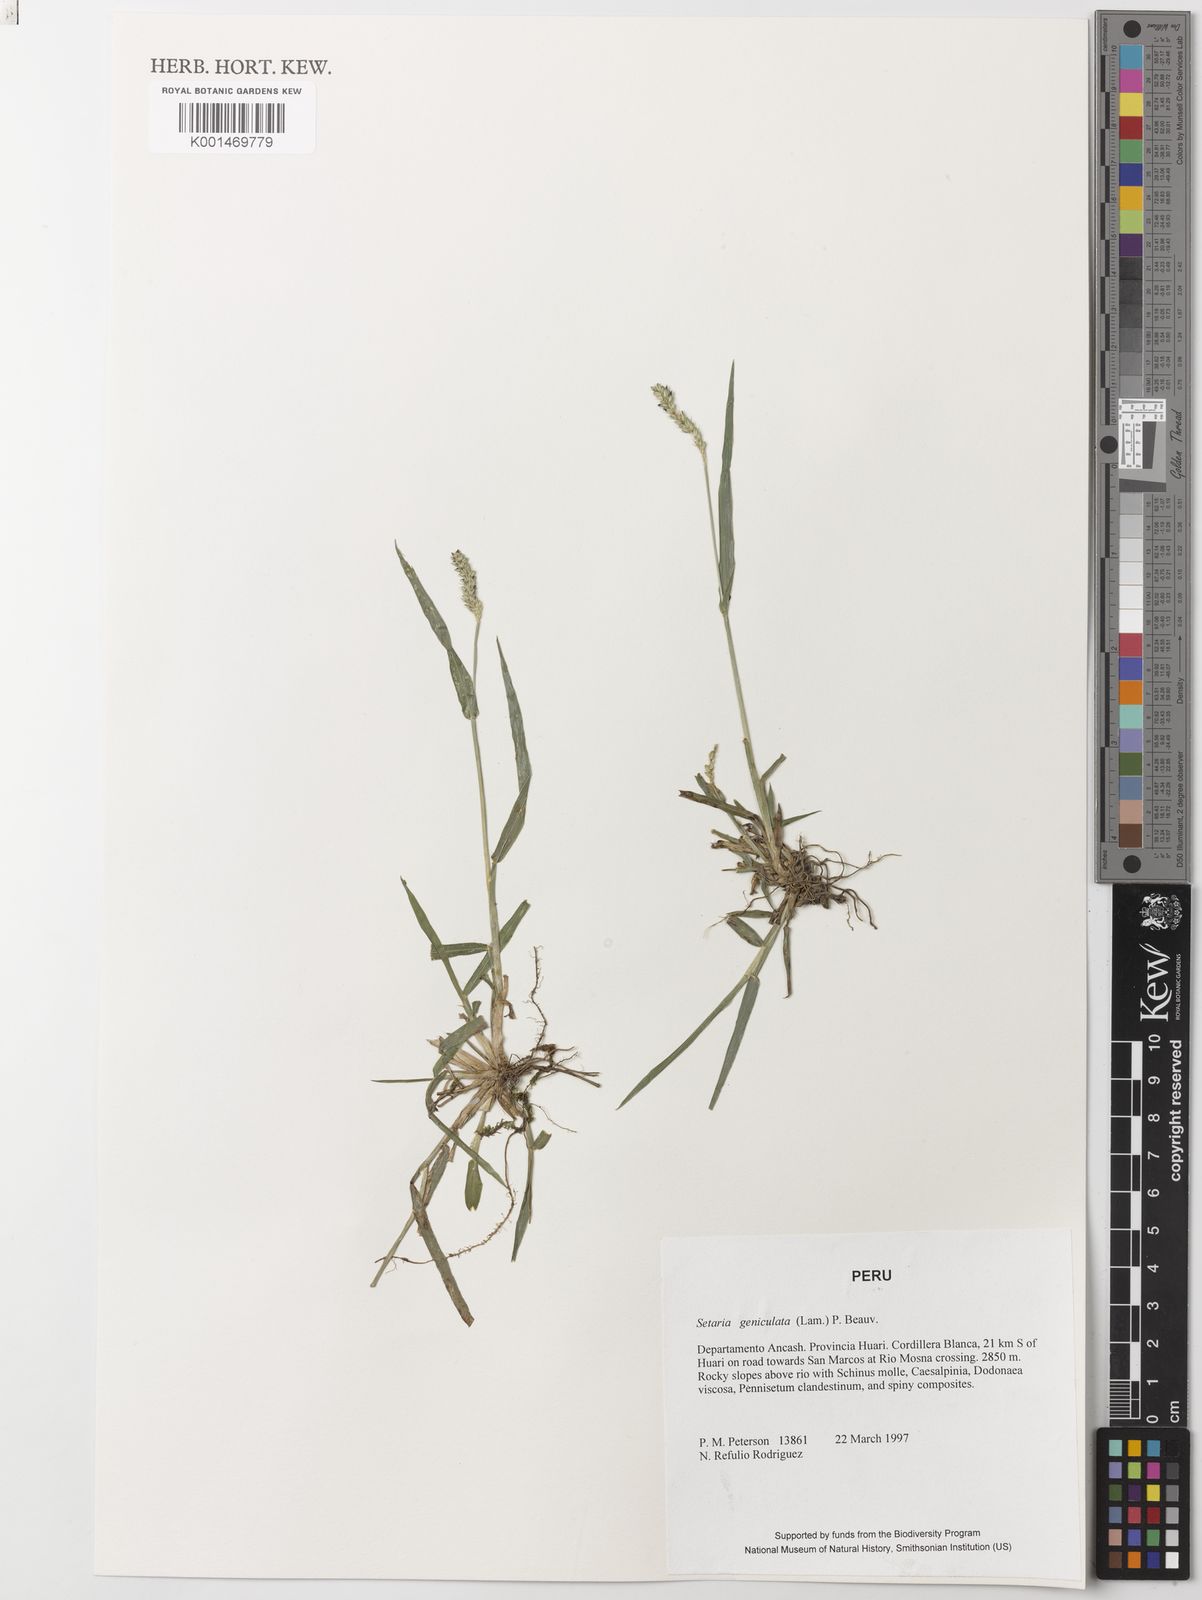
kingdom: Plantae
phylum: Tracheophyta
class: Liliopsida
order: Poales
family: Poaceae
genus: Setaria
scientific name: Setaria parviflora
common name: Knotroot bristle-grass
